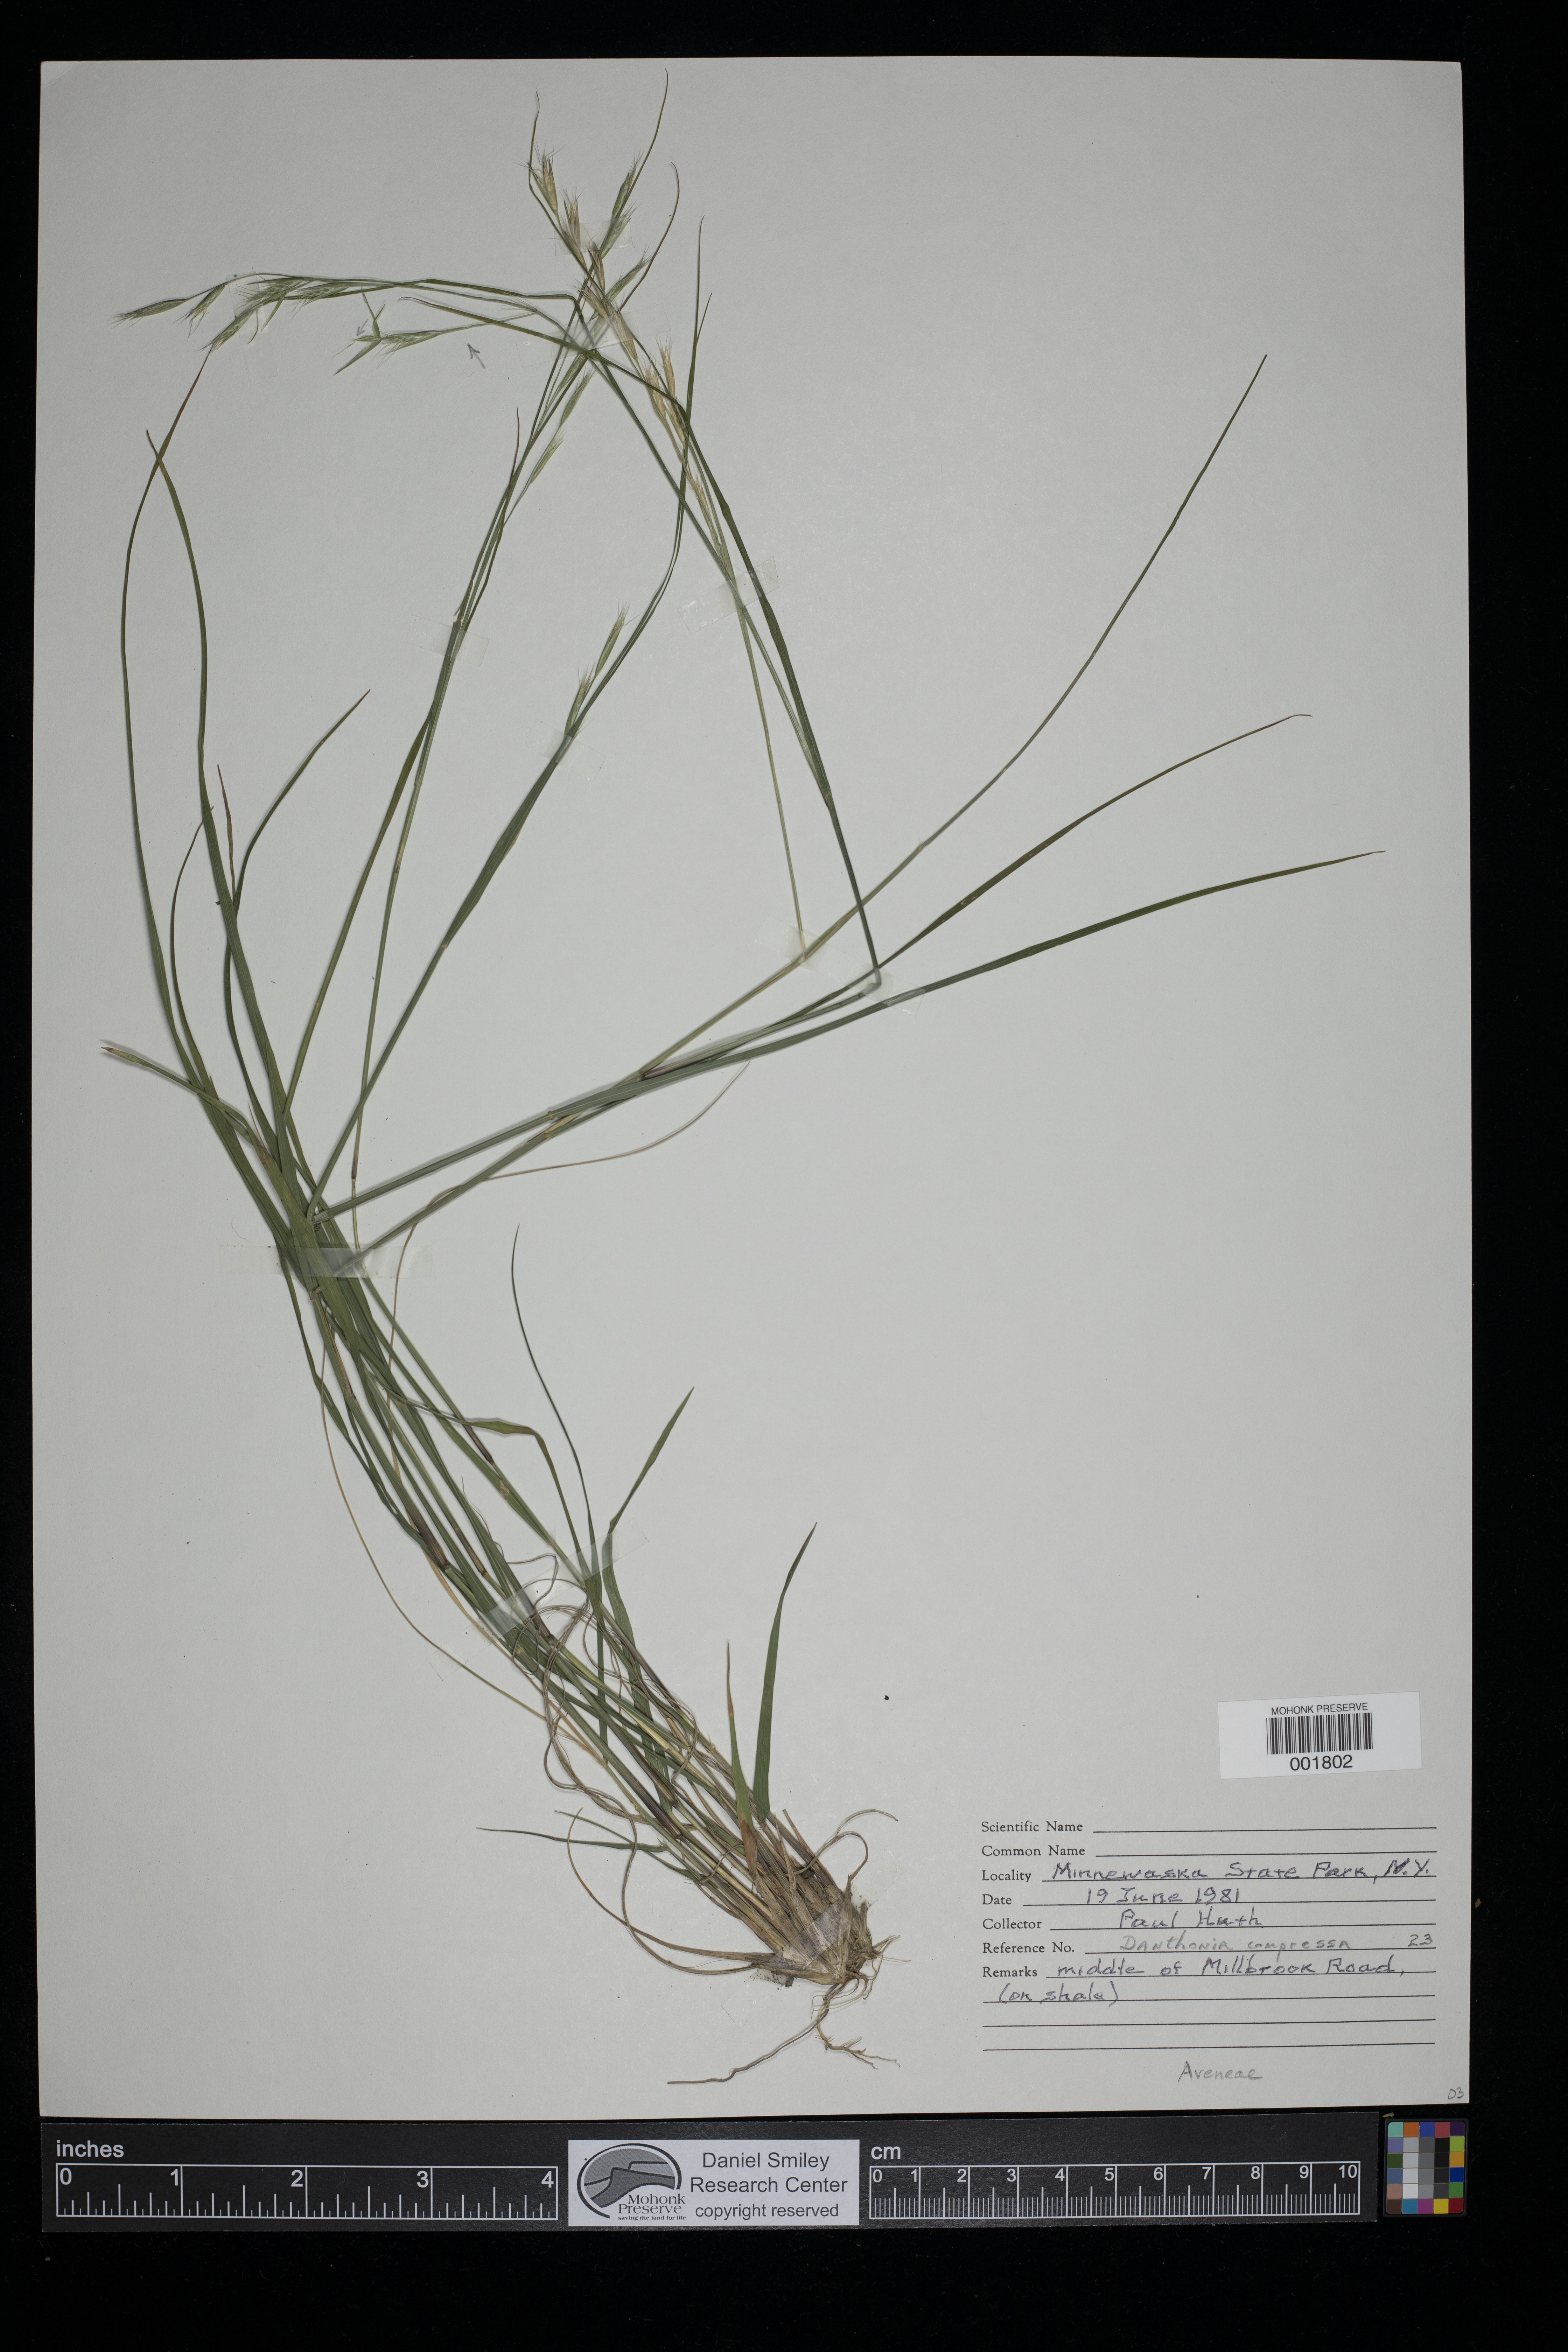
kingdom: Plantae
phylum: Tracheophyta
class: Liliopsida
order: Poales
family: Poaceae
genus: Danthonia
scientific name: Danthonia compressa
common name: Flat-stem oat grass
